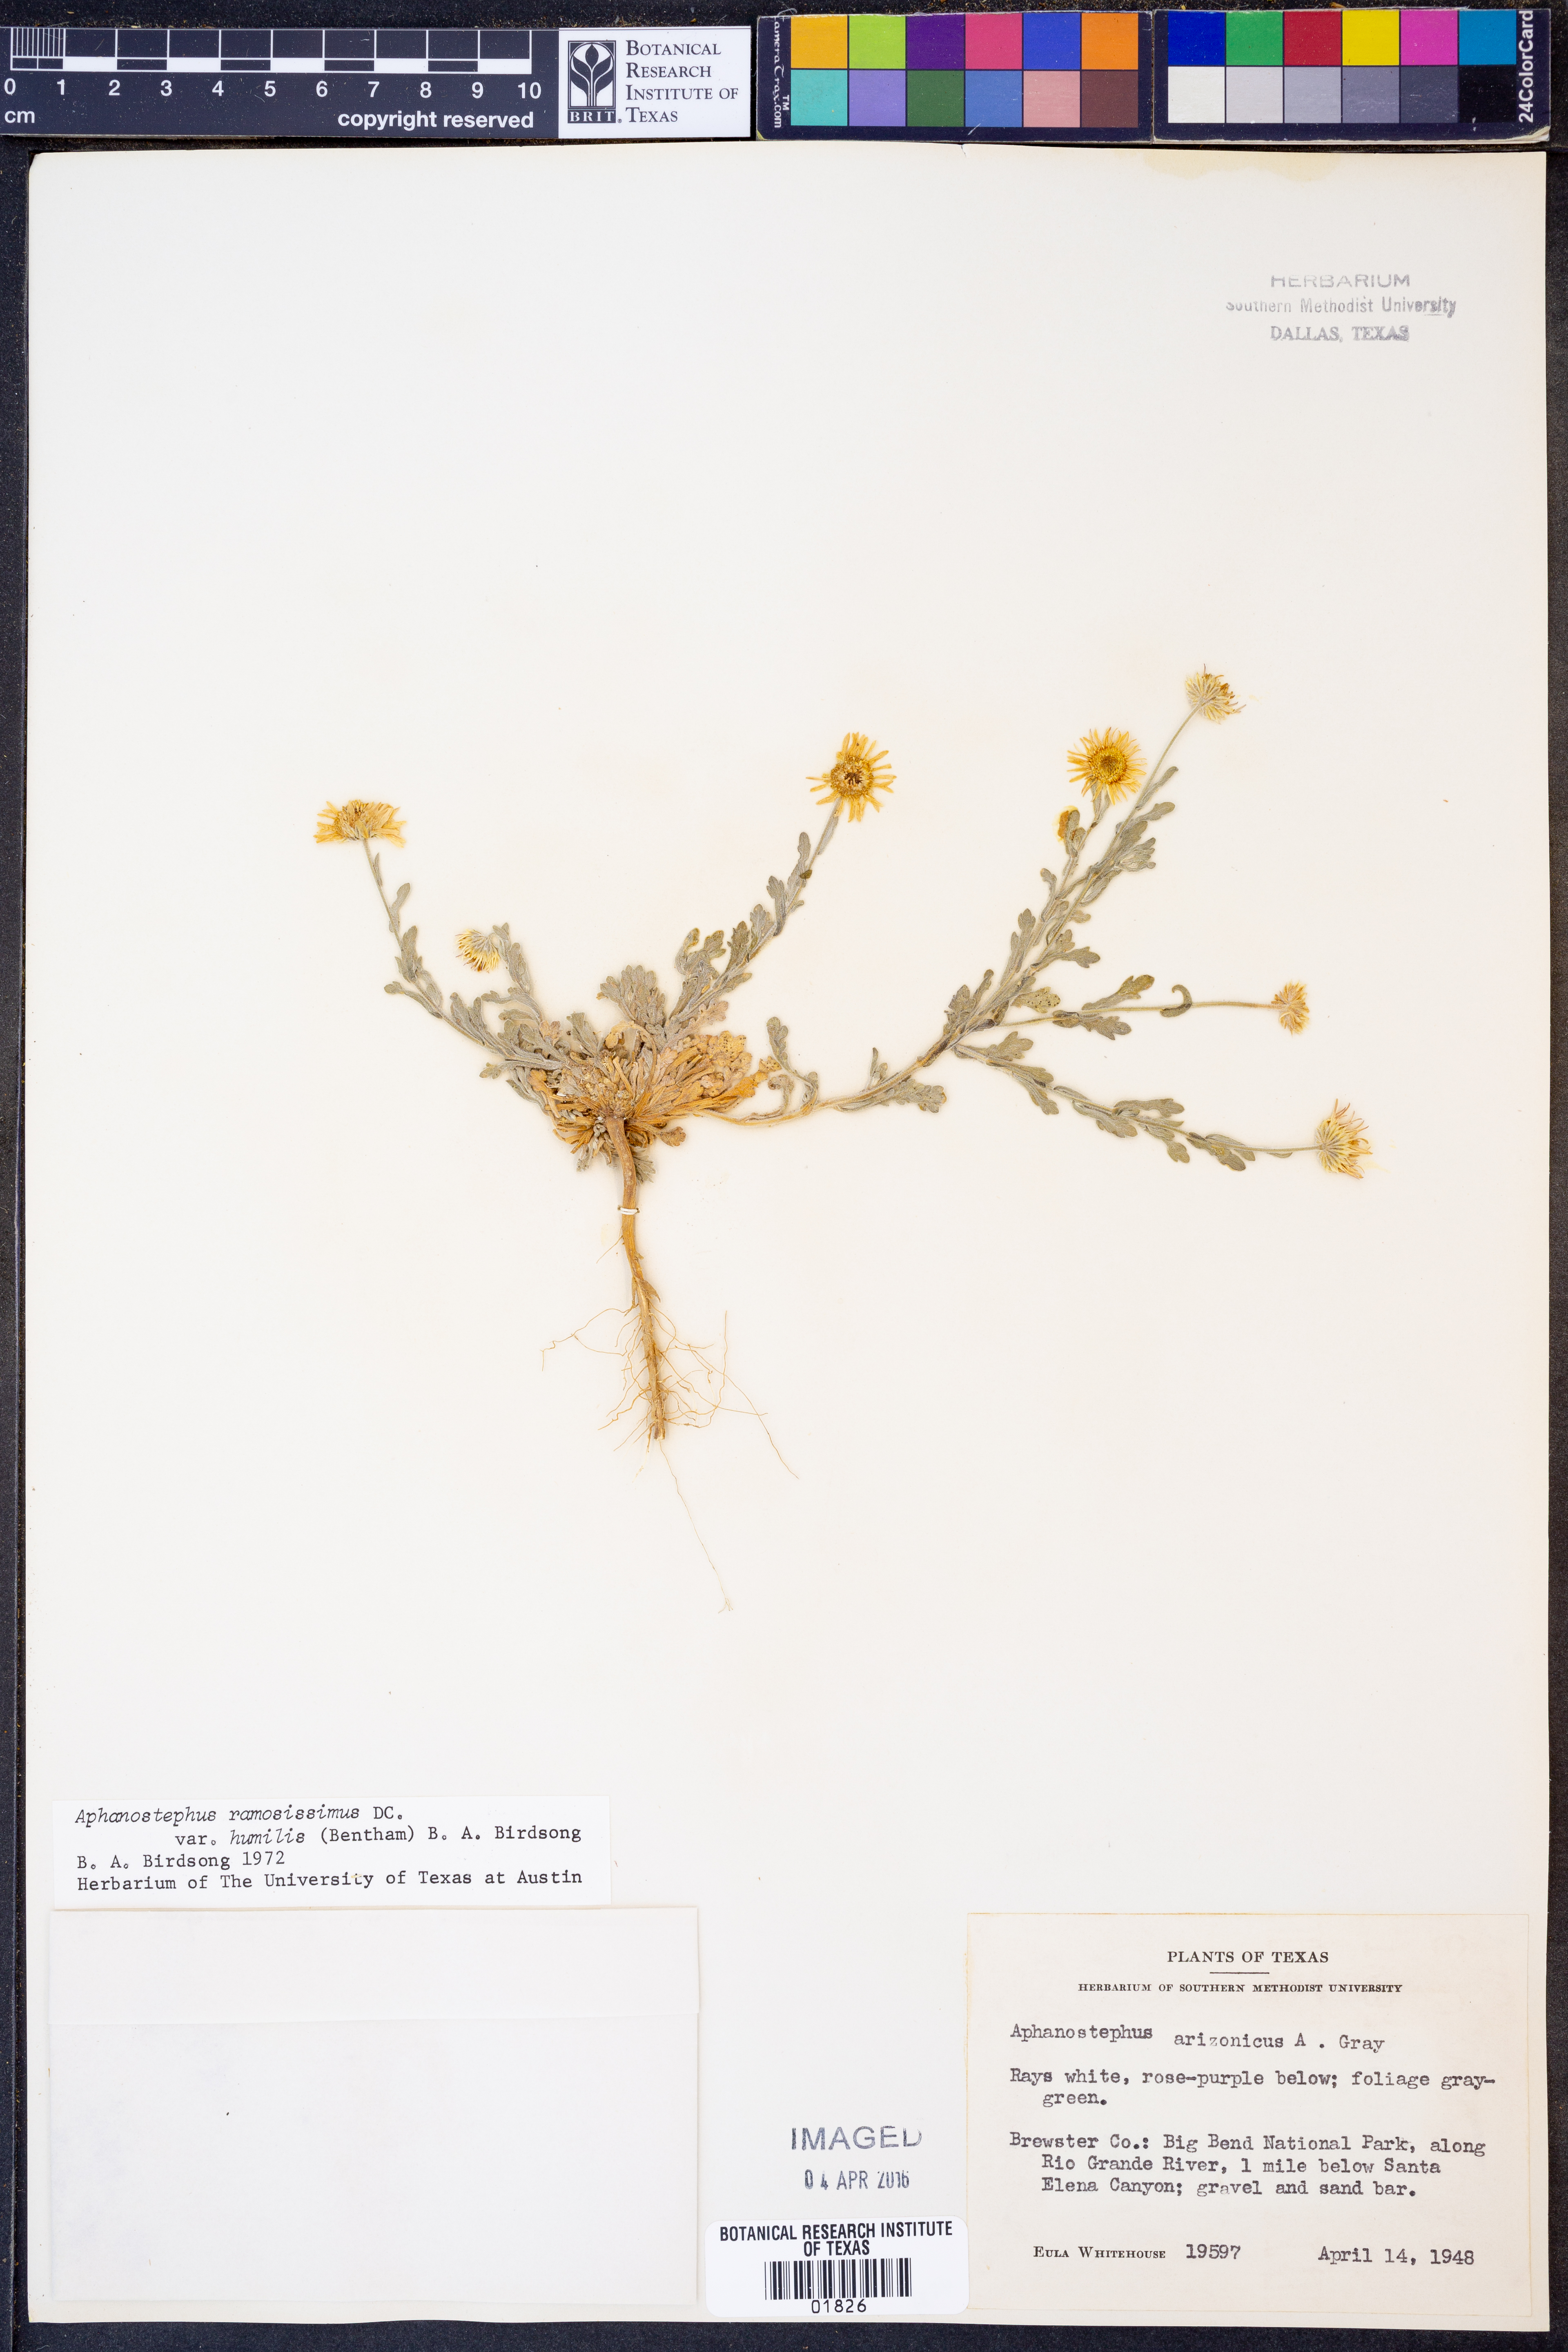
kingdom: Plantae
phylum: Tracheophyta
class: Magnoliopsida
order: Asterales
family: Asteraceae
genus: Aphanostephus
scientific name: Aphanostephus ramosissimus
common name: Plains lazy daisy
